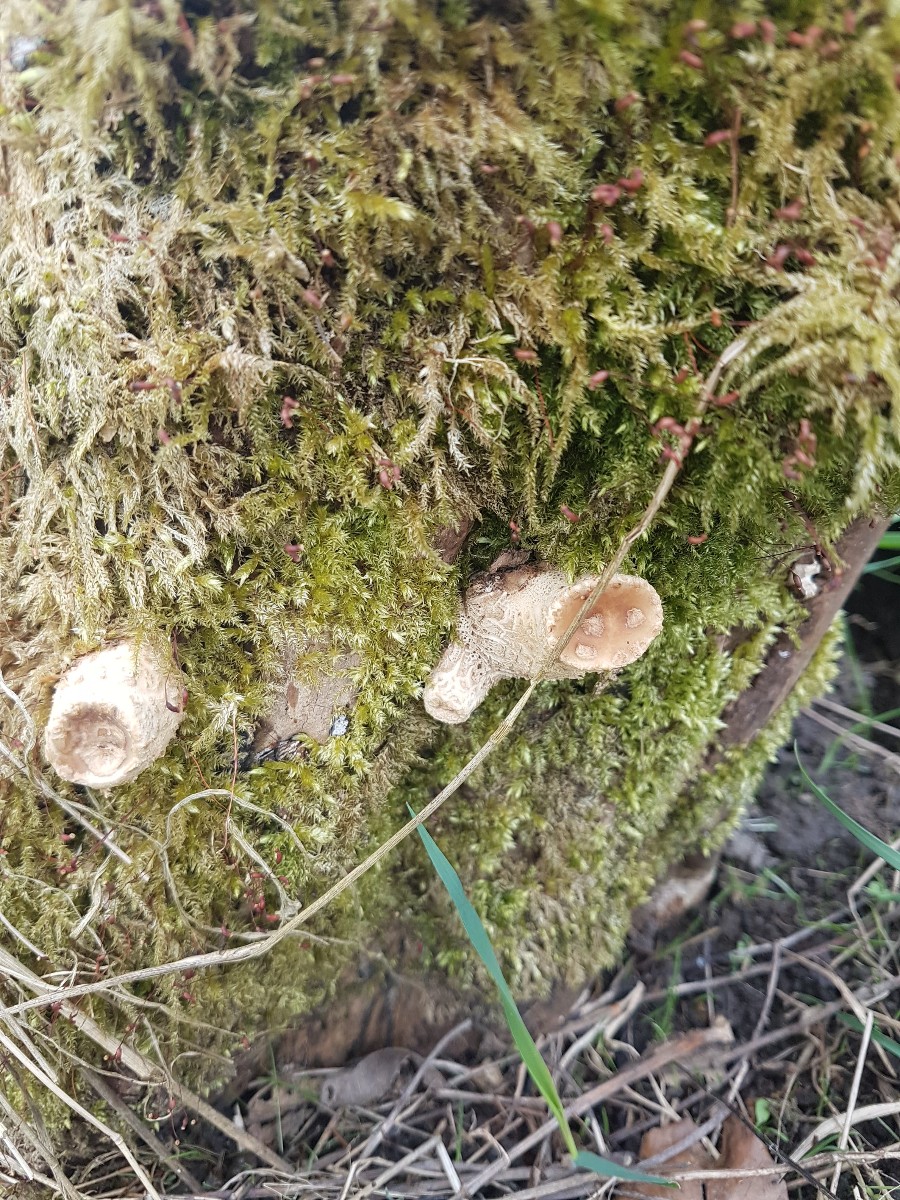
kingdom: Fungi
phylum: Basidiomycota
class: Agaricomycetes
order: Polyporales
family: Polyporaceae
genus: Cerioporus
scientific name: Cerioporus squamosus
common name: skællet stilkporesvamp
